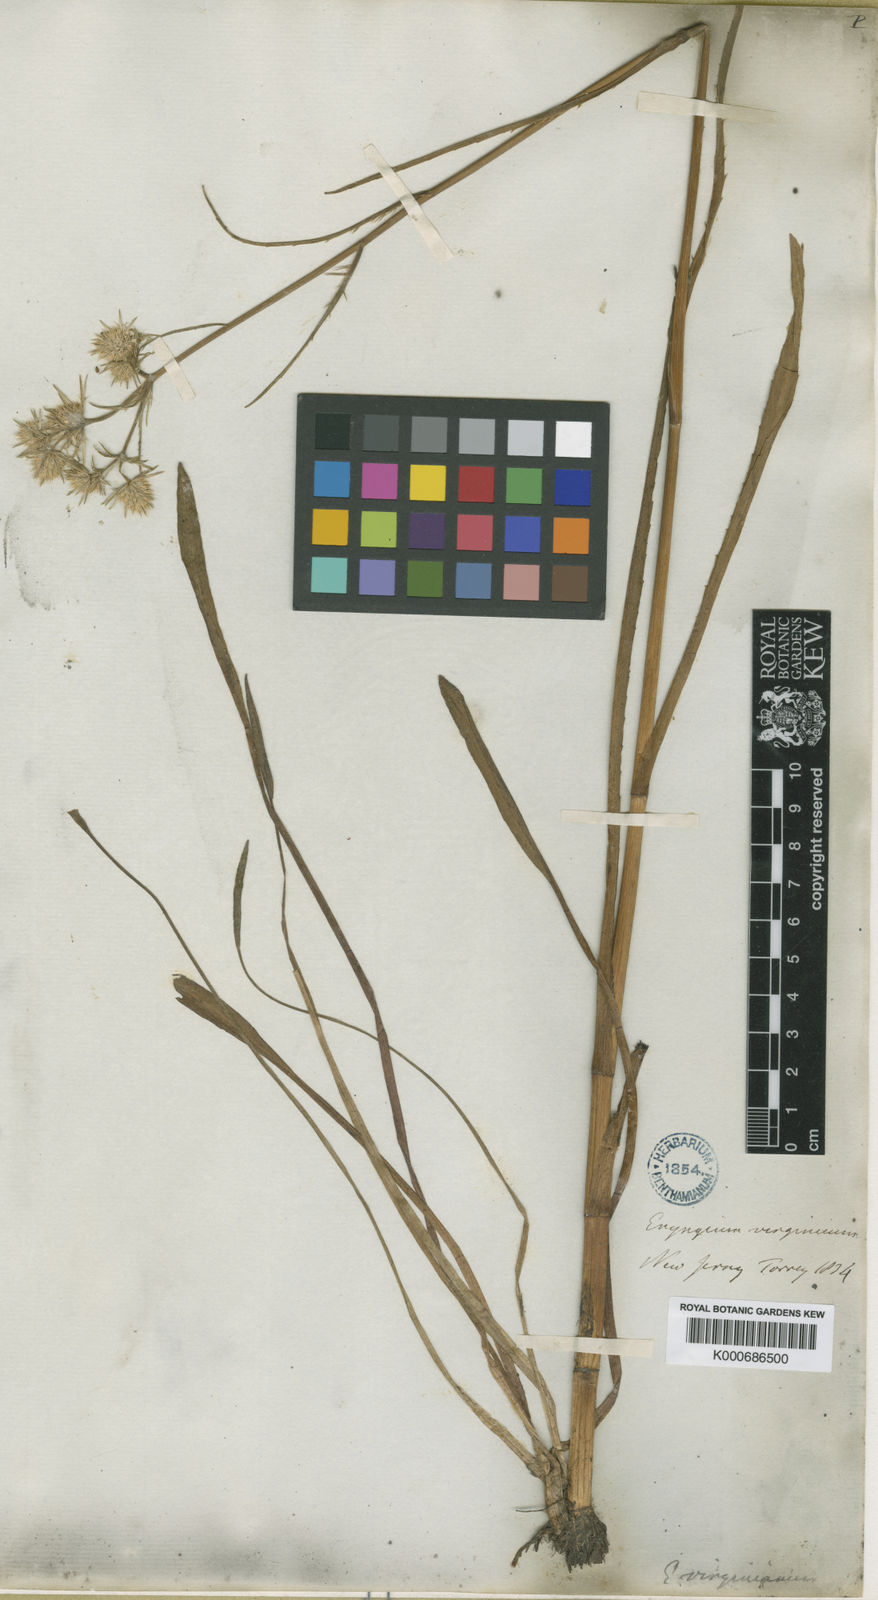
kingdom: Plantae
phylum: Tracheophyta
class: Magnoliopsida
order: Apiales
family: Apiaceae
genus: Eryngium
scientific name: Eryngium aquaticum
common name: Water eryngo
